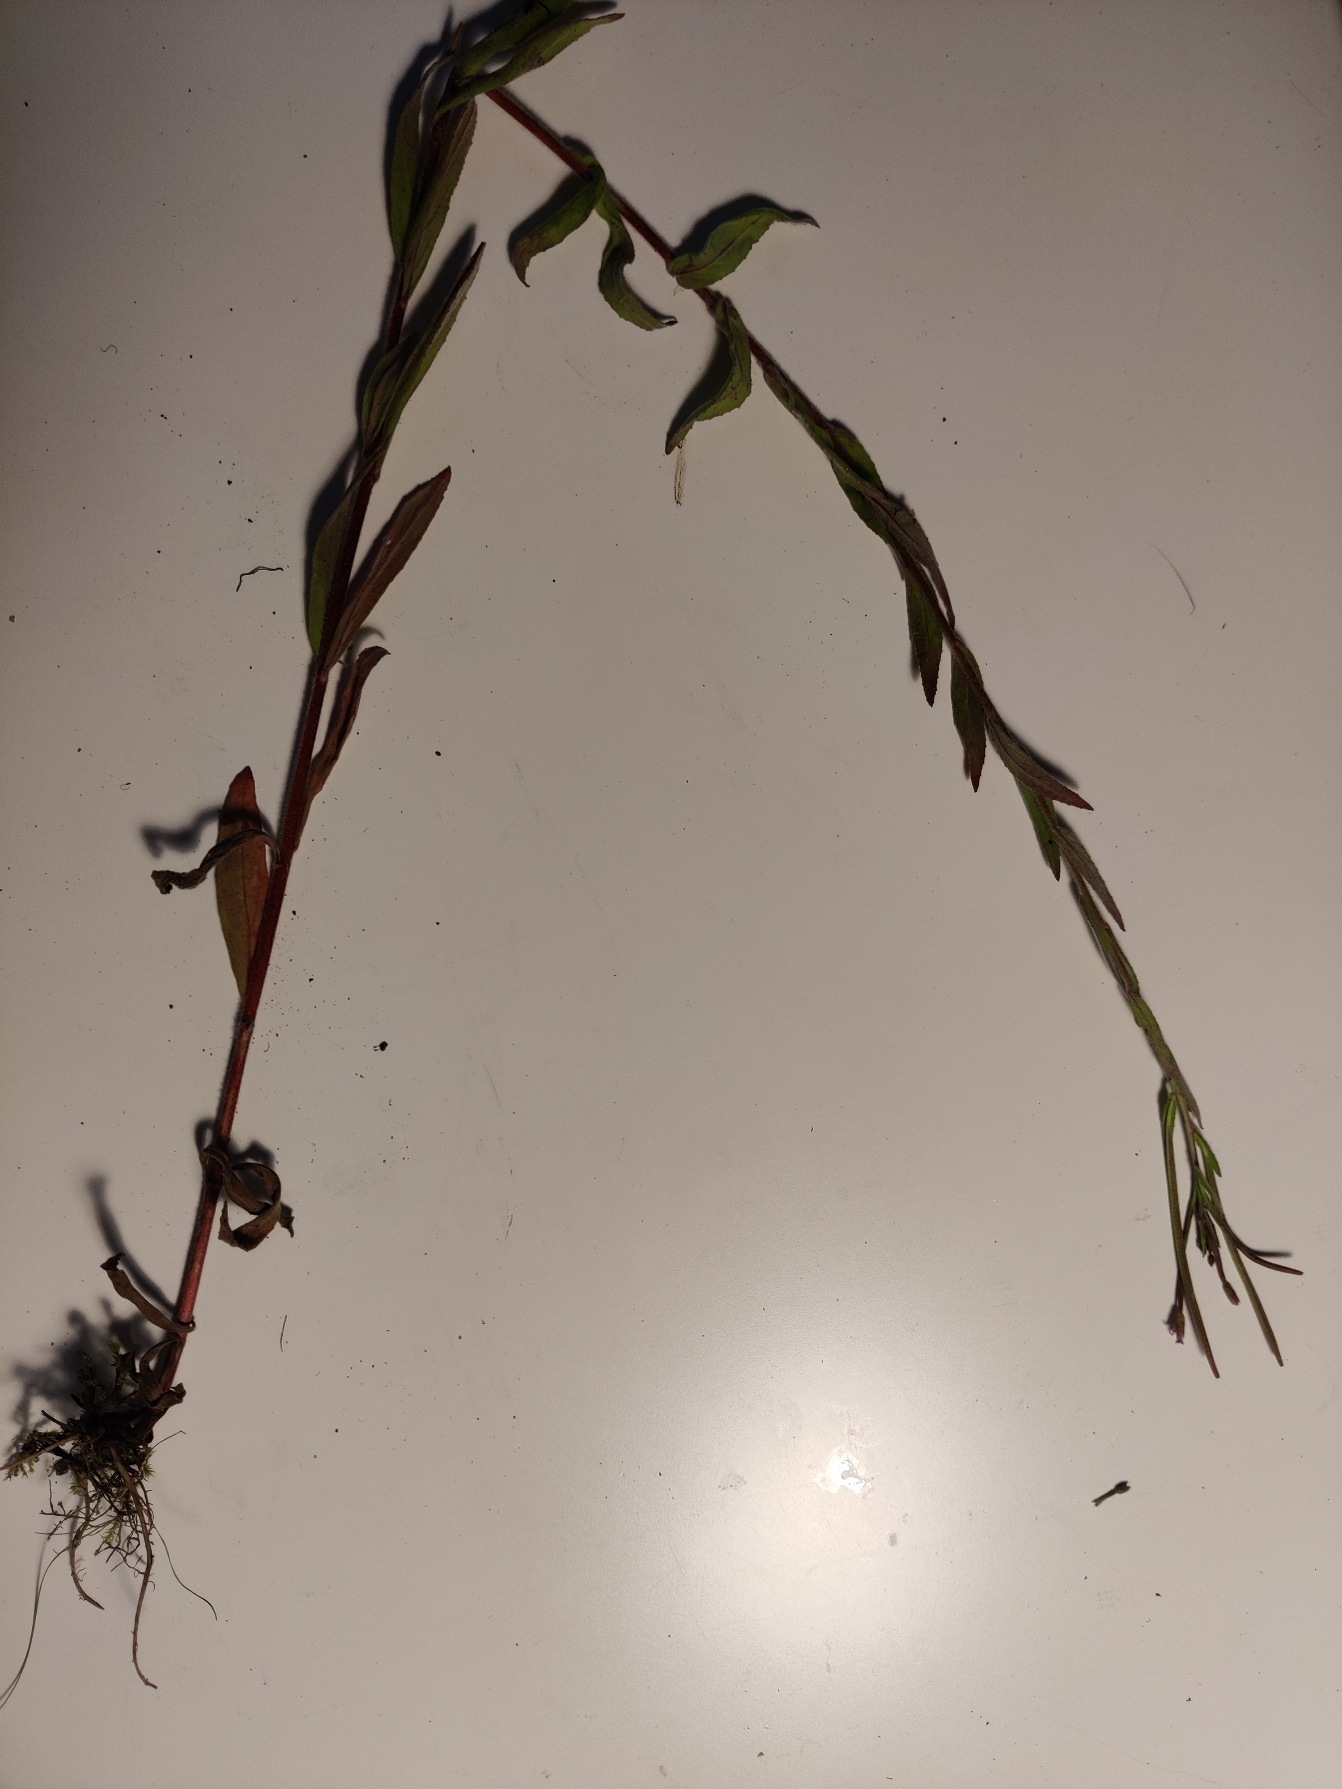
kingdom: Plantae
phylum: Tracheophyta
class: Magnoliopsida
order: Myrtales
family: Onagraceae
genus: Epilobium
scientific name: Epilobium parviflorum
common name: Dunet dueurt
